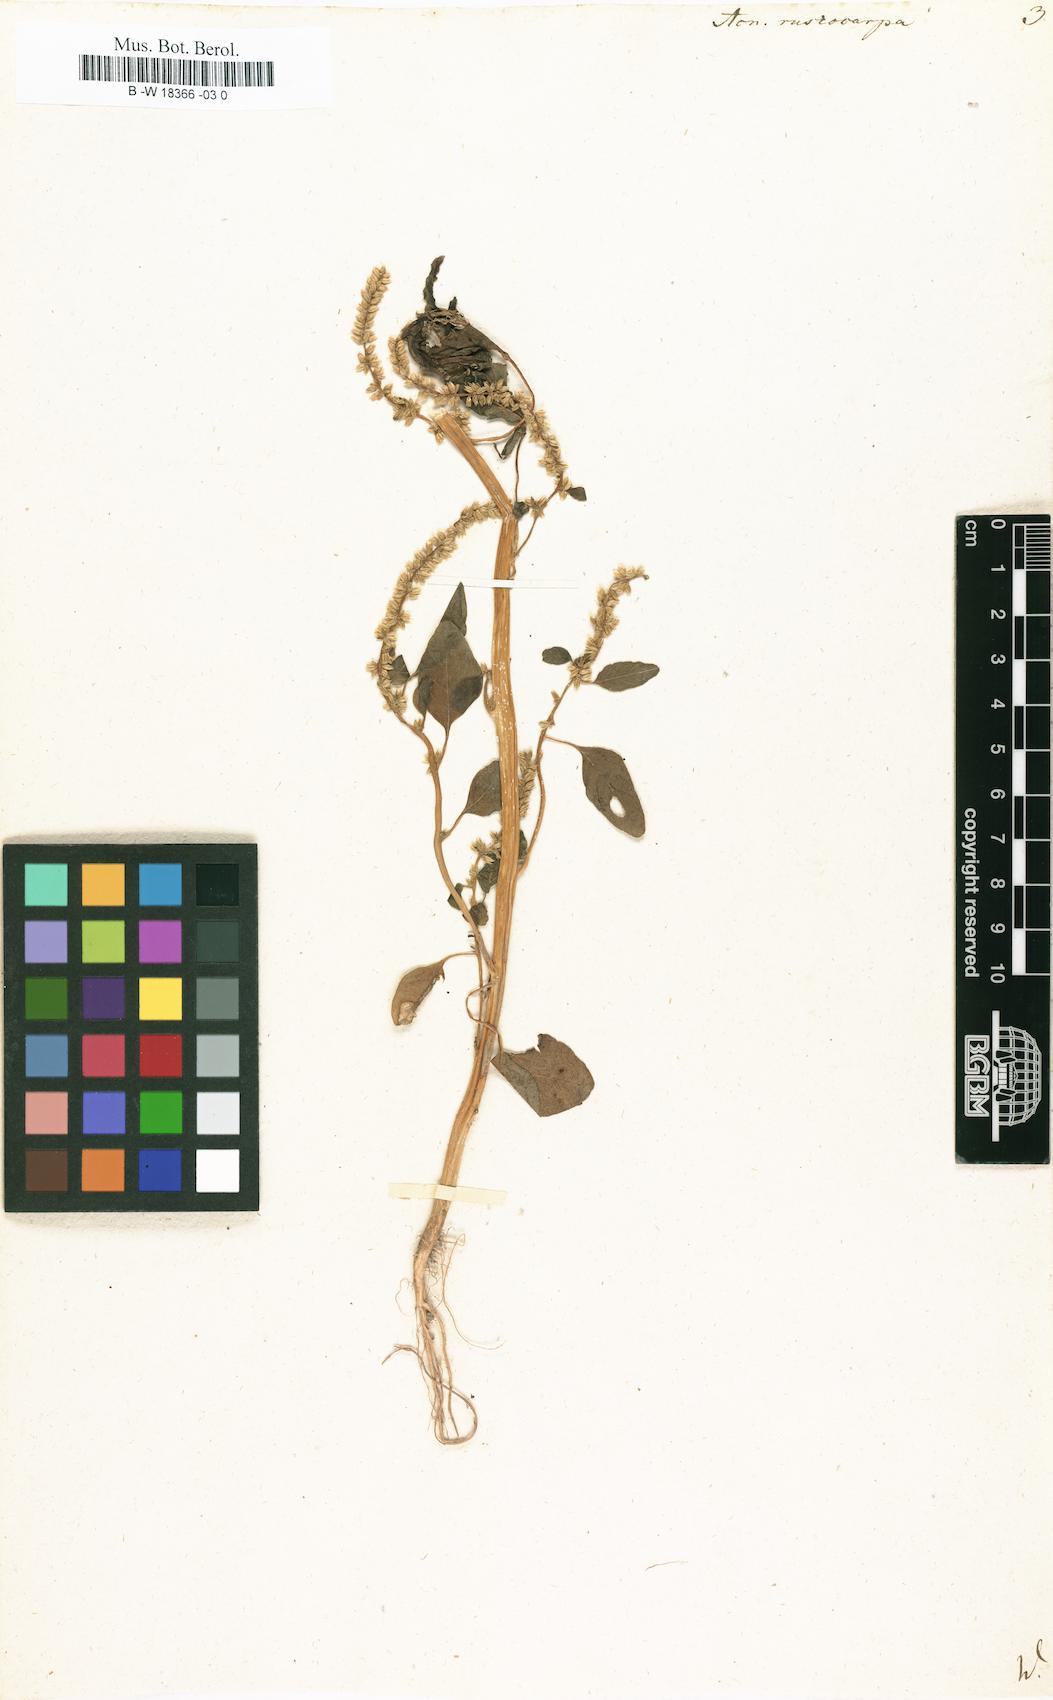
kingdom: Plantae
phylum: Tracheophyta
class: Magnoliopsida
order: Caryophyllales
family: Amaranthaceae
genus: Amaranthus
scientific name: Amaranthus cannabinus
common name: Salt-marsh water-hemp
